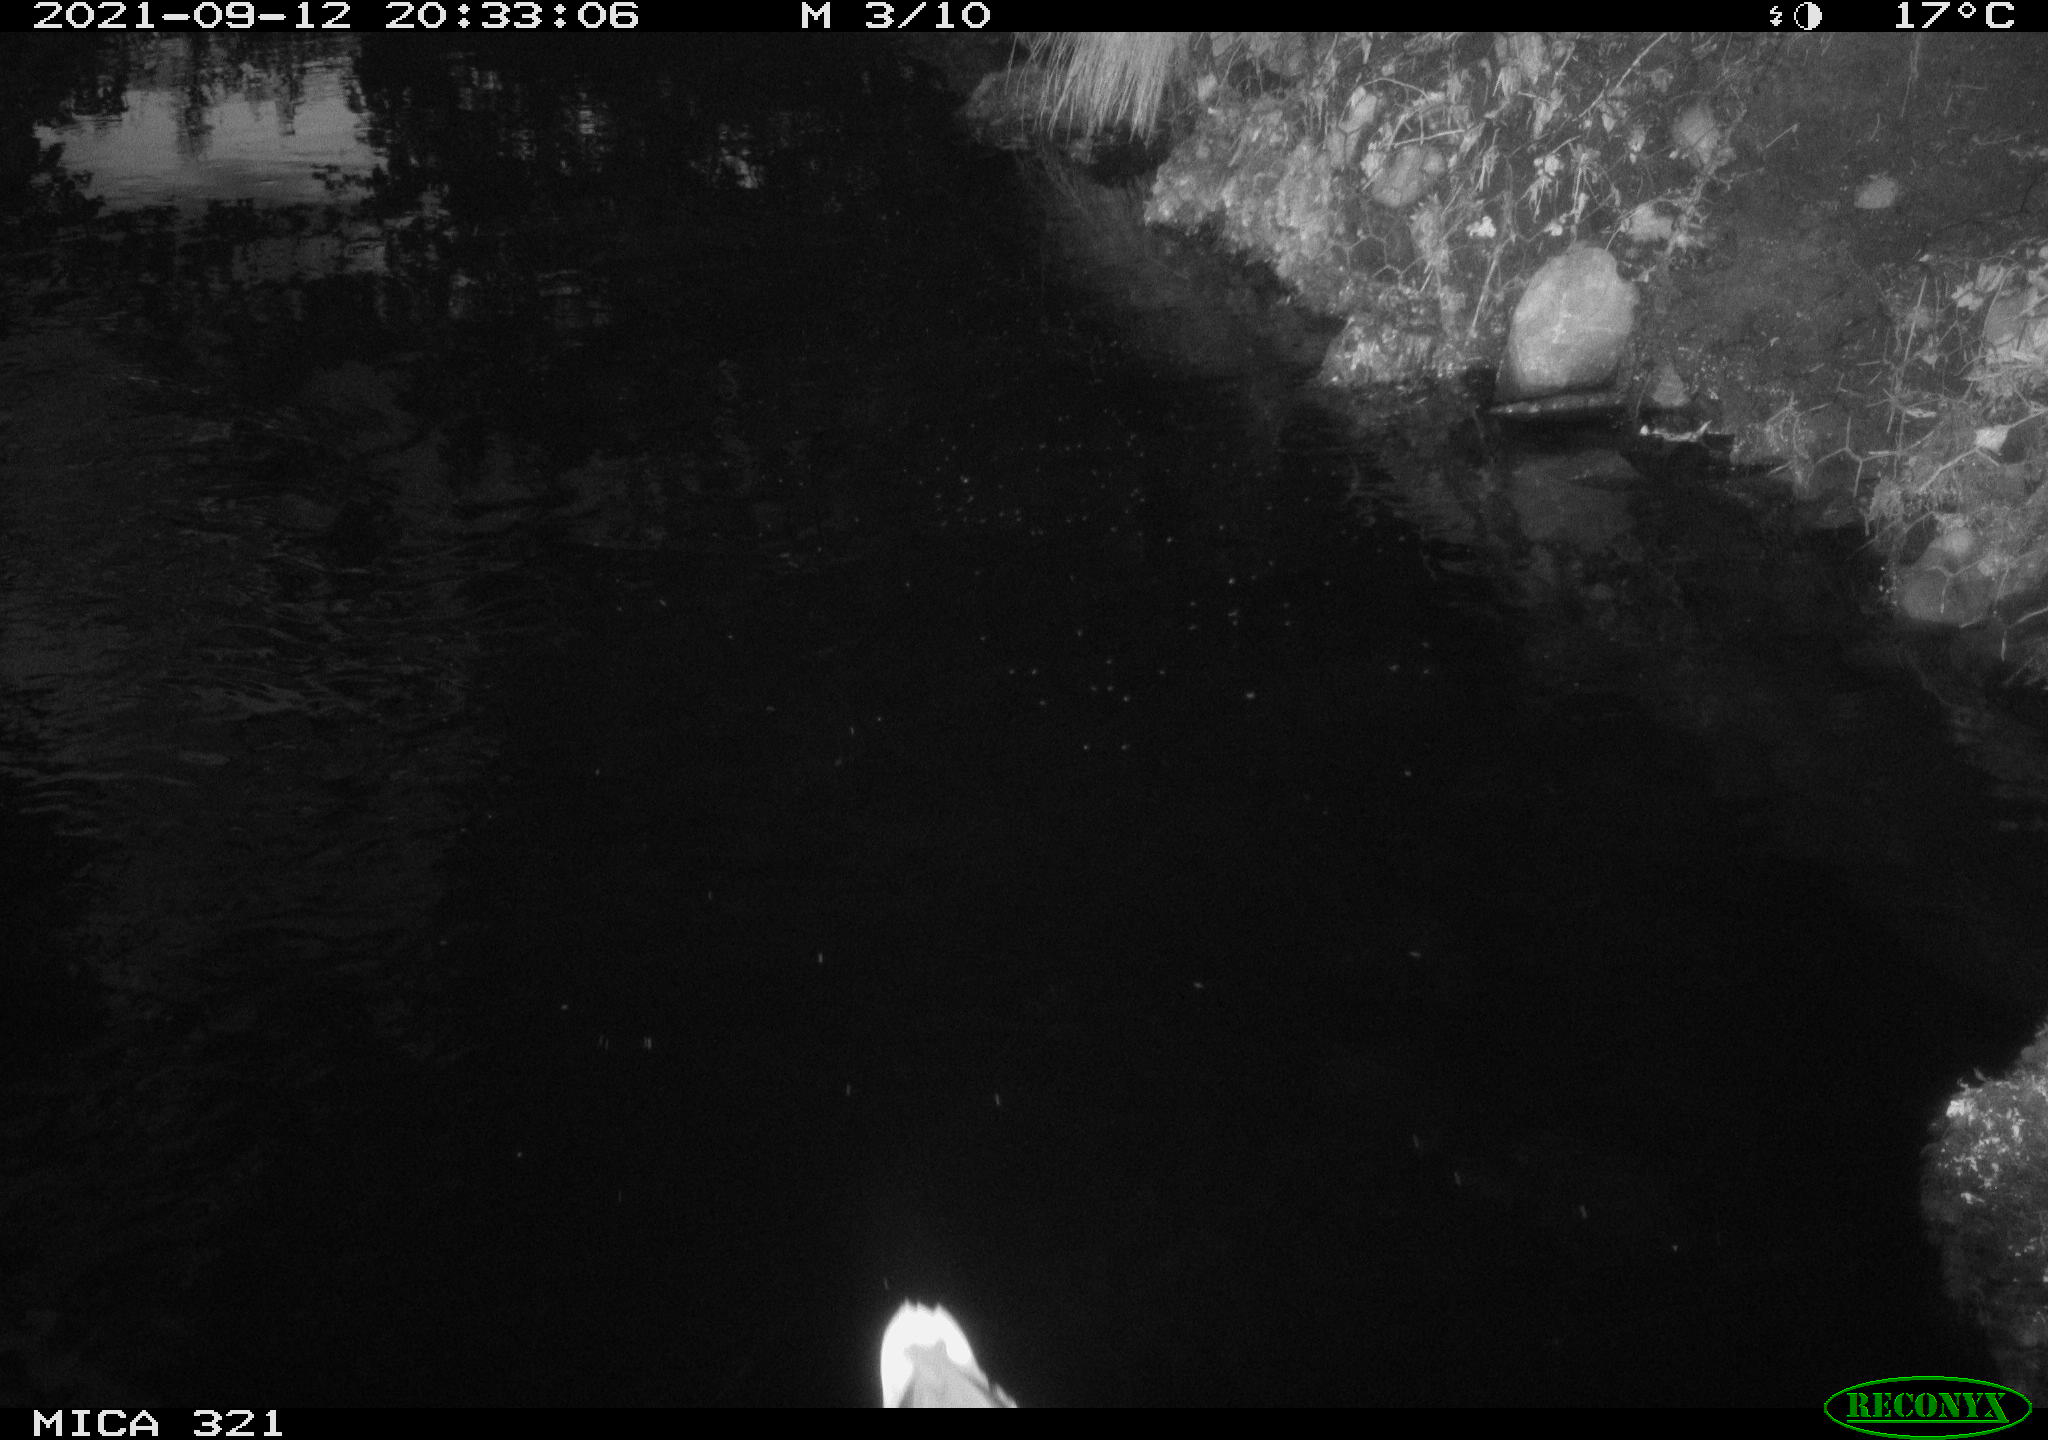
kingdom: Animalia
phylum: Chordata
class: Aves
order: Anseriformes
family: Anatidae
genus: Anas
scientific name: Anas platyrhynchos
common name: Mallard
